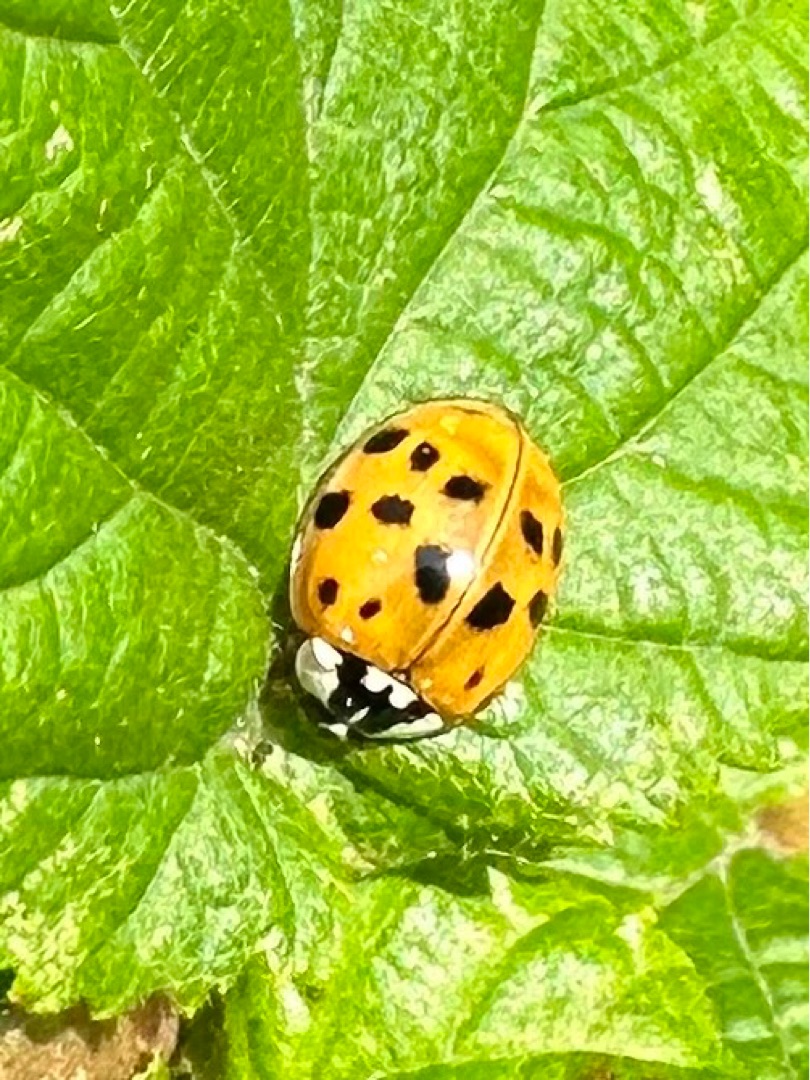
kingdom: Animalia
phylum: Arthropoda
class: Insecta
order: Coleoptera
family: Coccinellidae
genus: Harmonia
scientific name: Harmonia axyridis
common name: Harlekinmariehøne
